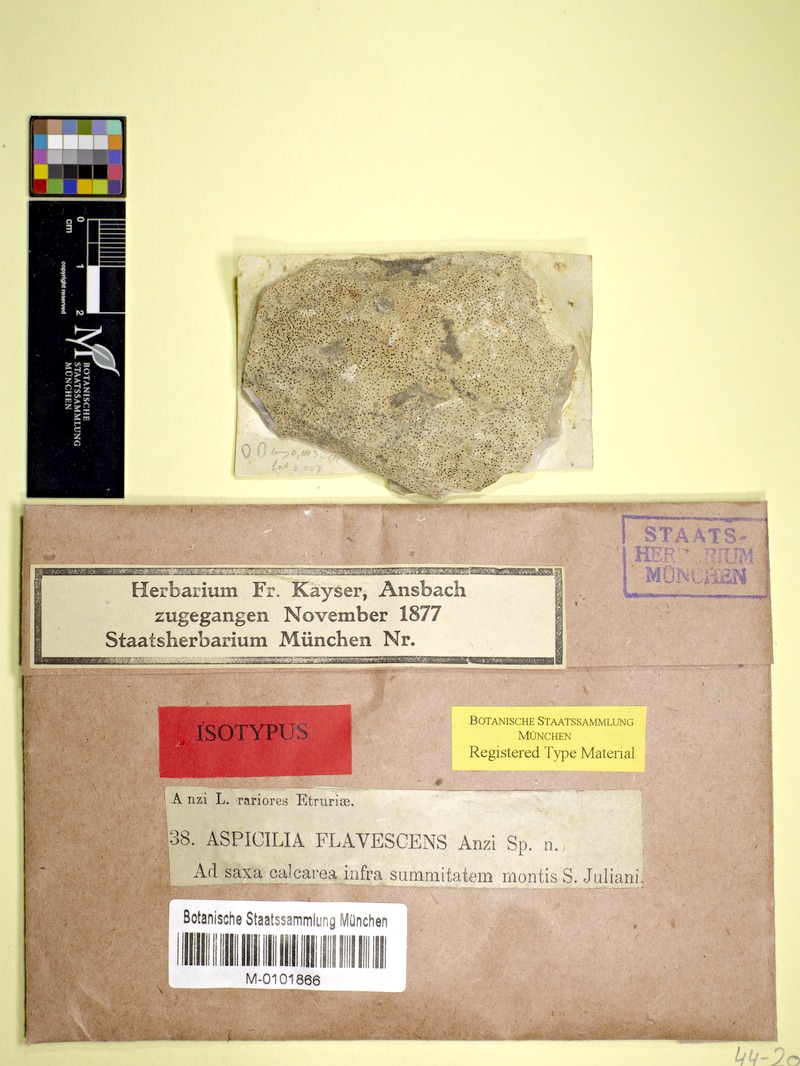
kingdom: Fungi
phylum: Ascomycota
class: Lecanoromycetes
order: Pertusariales
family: Megasporaceae
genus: Aspicilia
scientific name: Aspicilia
